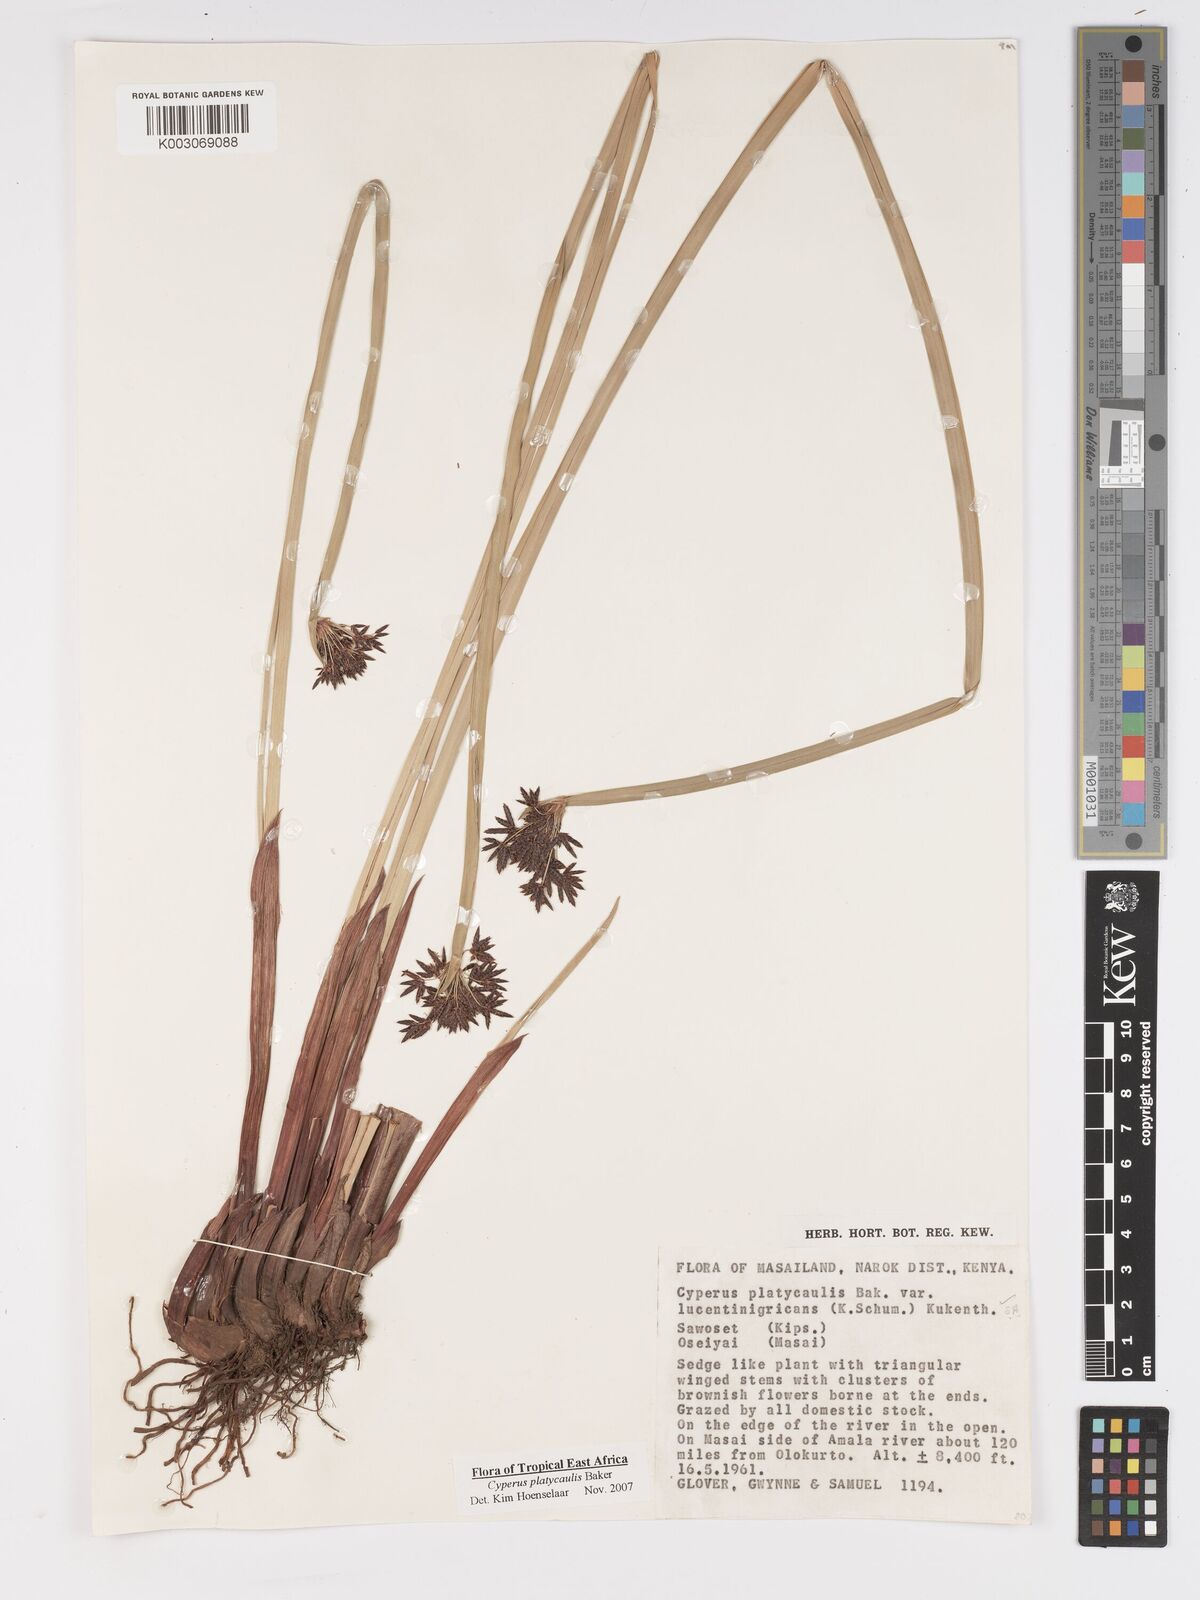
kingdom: Plantae
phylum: Tracheophyta
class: Liliopsida
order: Poales
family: Cyperaceae
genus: Cyperus
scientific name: Cyperus platycaulis
